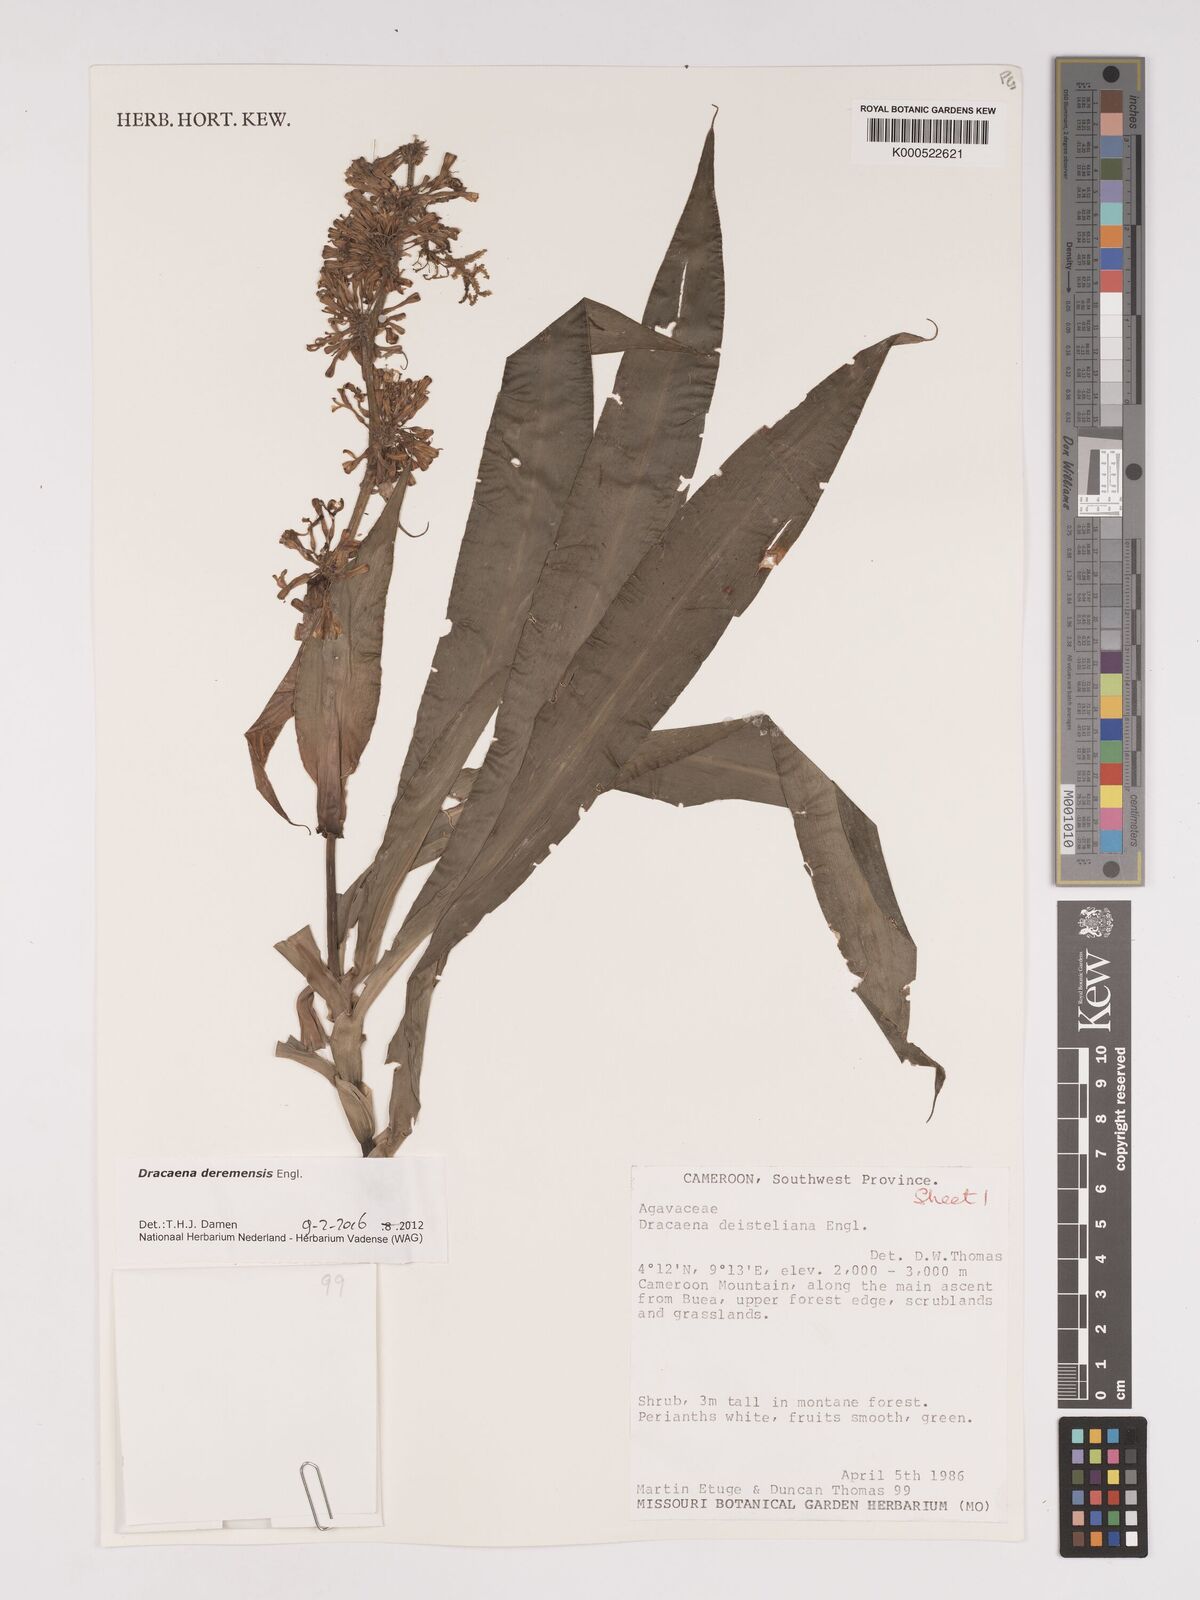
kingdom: Plantae
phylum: Tracheophyta
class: Liliopsida
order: Asparagales
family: Asparagaceae
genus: Dracaena
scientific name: Dracaena fragrans
